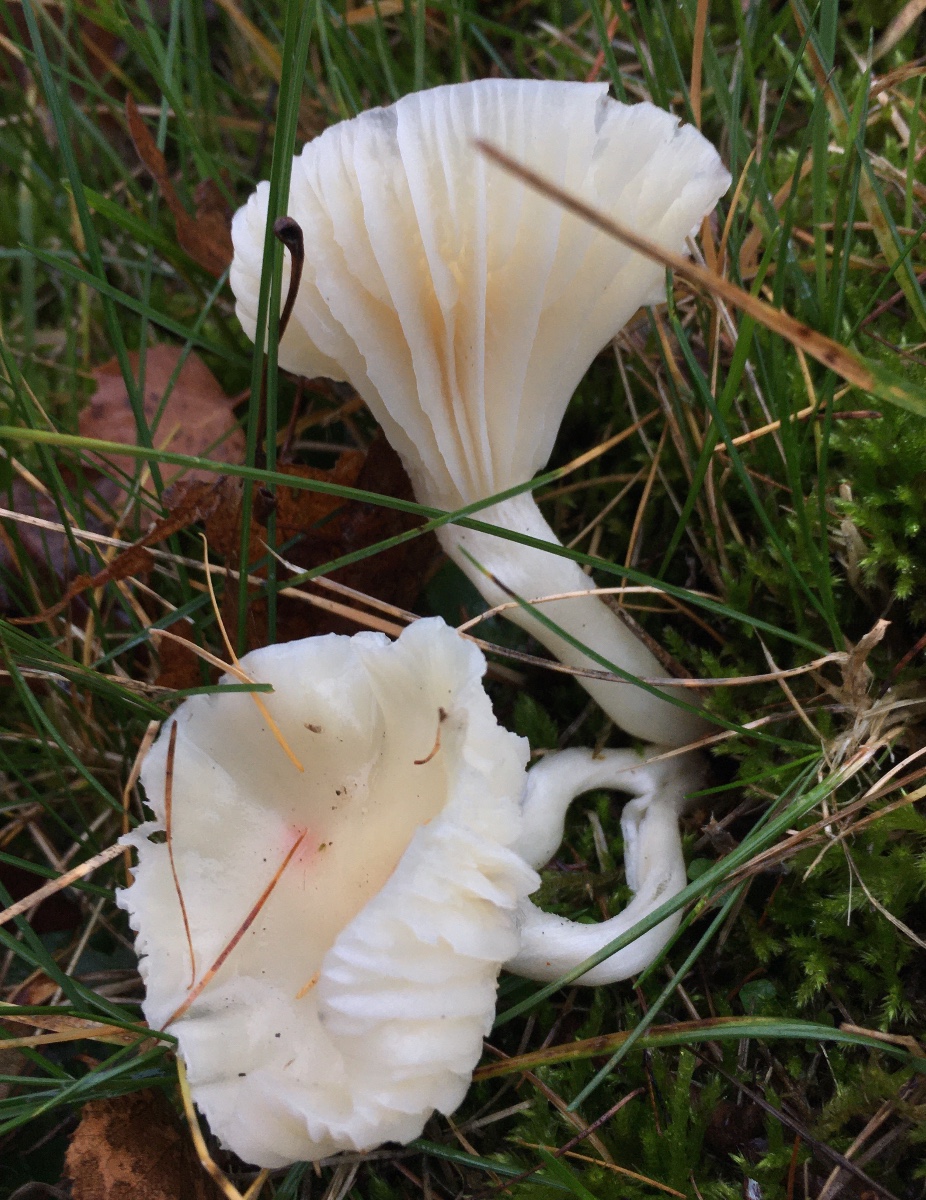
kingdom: Fungi
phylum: Basidiomycota
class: Agaricomycetes
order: Agaricales
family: Hygrophoraceae
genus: Cuphophyllus
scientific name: Cuphophyllus virgineus
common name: snehvid vokshat
